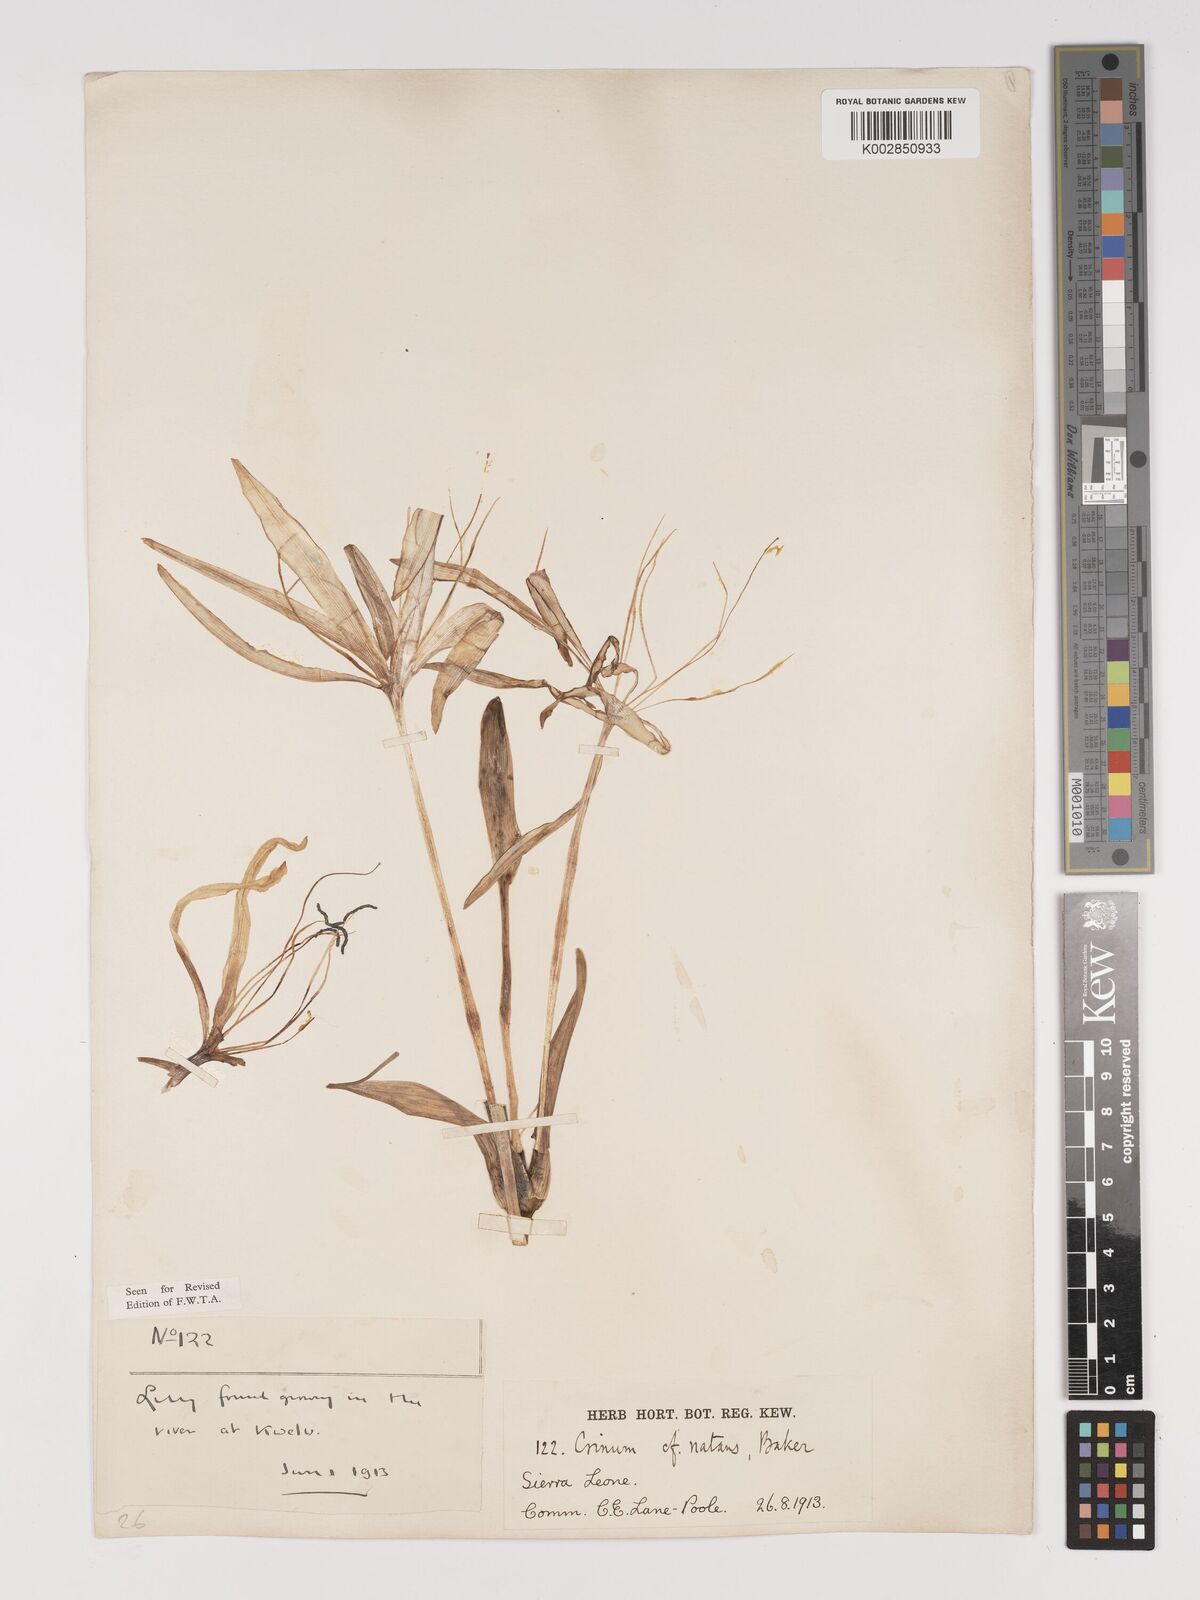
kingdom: Plantae
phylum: Tracheophyta
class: Liliopsida
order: Asparagales
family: Amaryllidaceae
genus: Crinum
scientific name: Crinum natans
